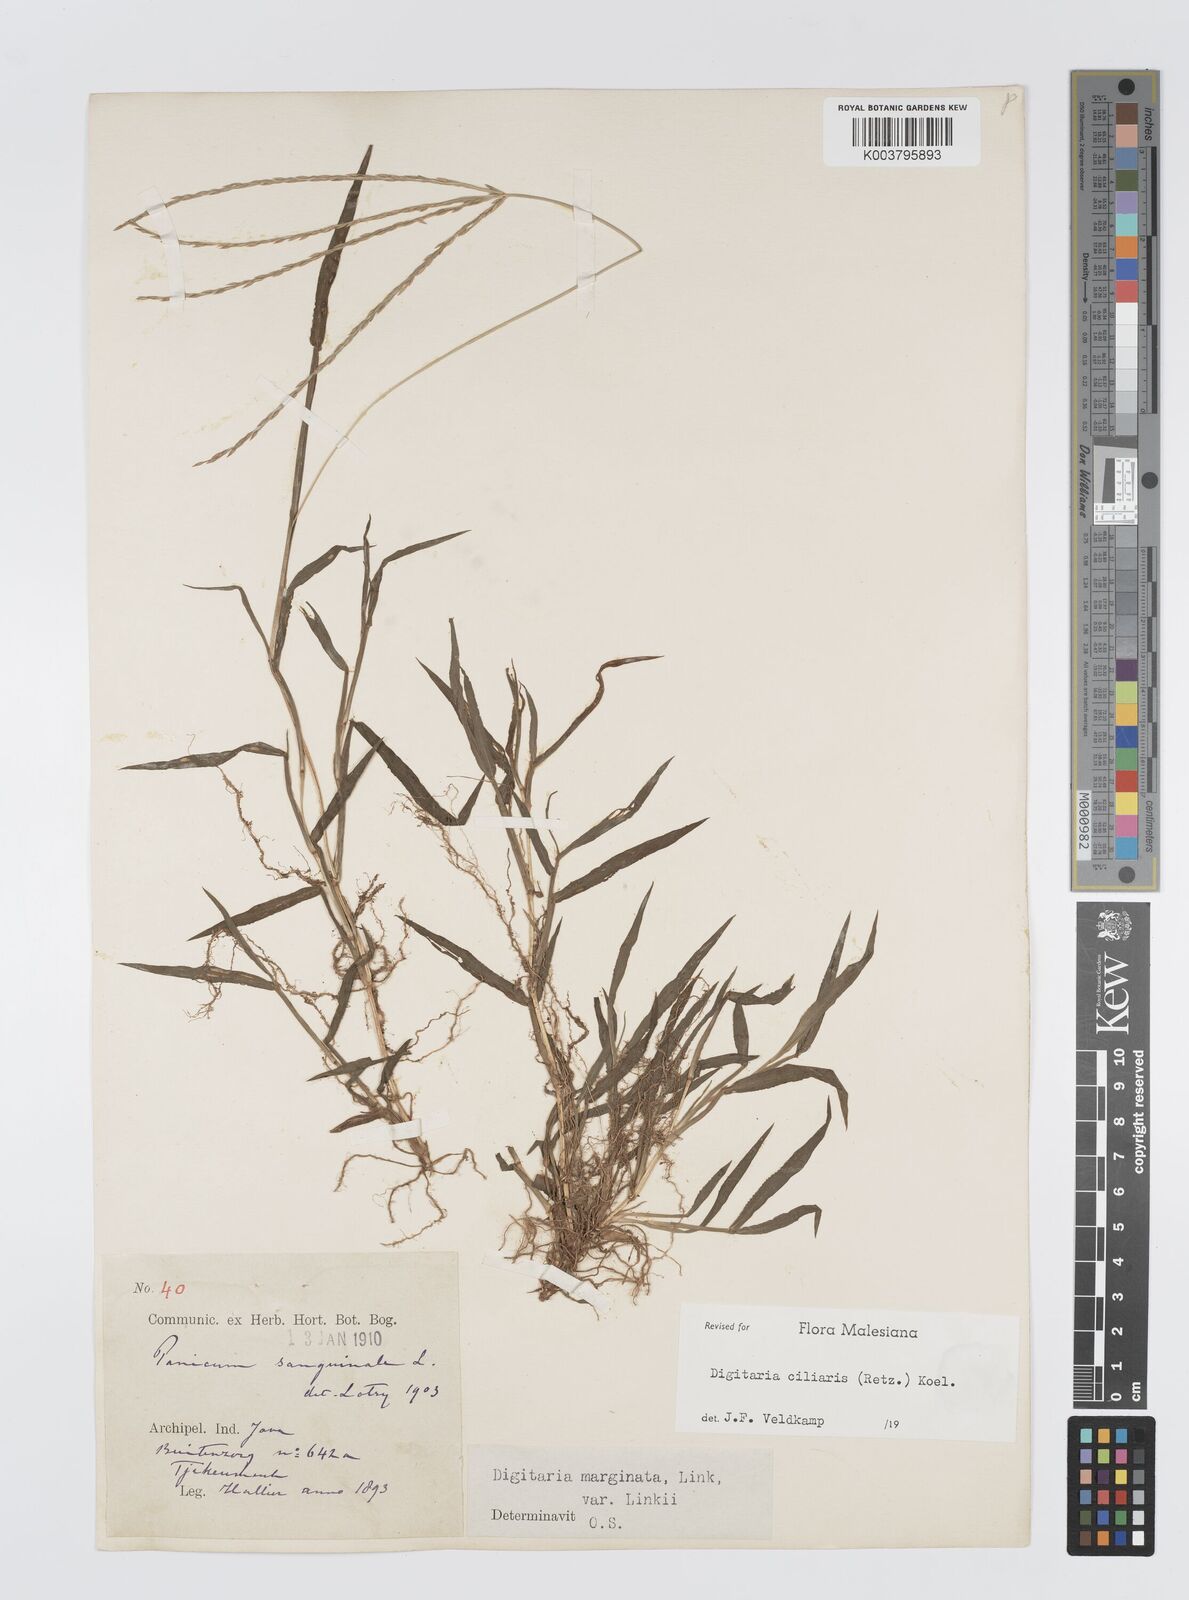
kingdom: Plantae
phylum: Tracheophyta
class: Liliopsida
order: Poales
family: Poaceae
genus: Digitaria
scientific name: Digitaria ciliaris
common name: Tropical finger-grass
